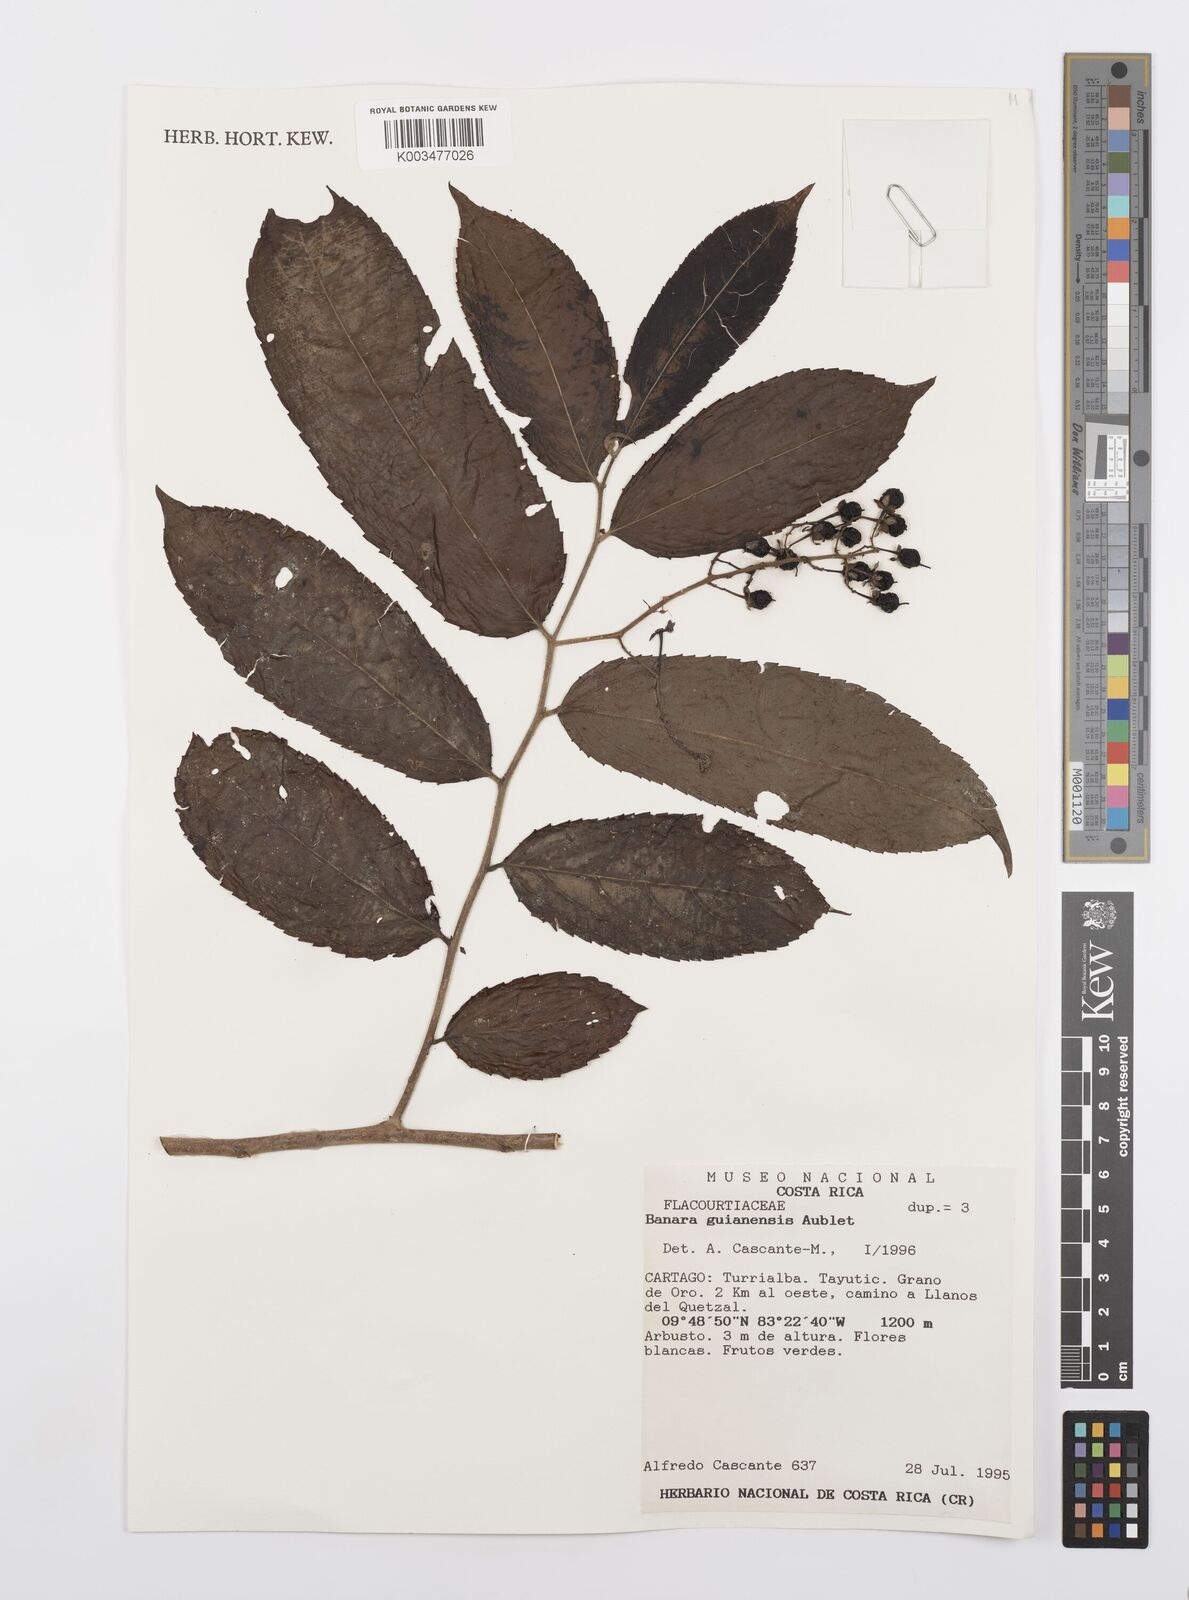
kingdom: Plantae
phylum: Tracheophyta
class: Magnoliopsida
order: Malpighiales
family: Salicaceae
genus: Banara
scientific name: Banara guianensis
